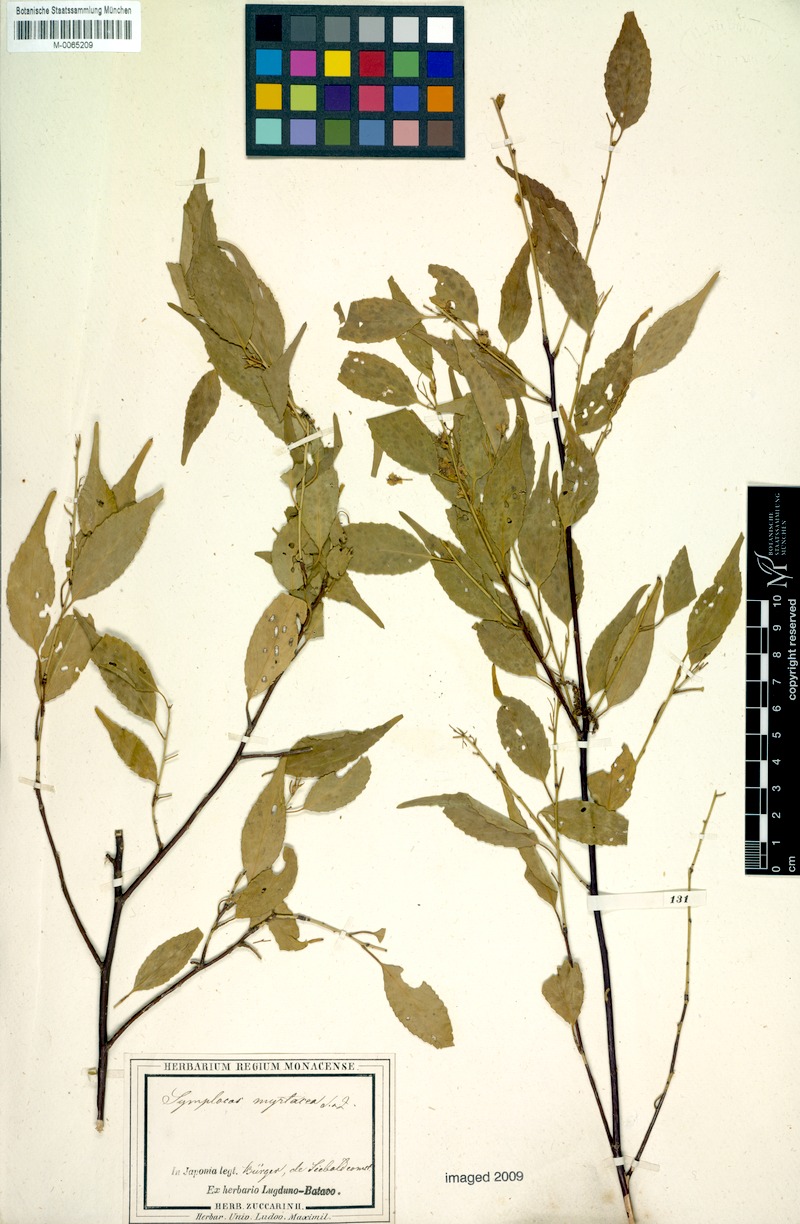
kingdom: Plantae
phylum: Tracheophyta
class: Magnoliopsida
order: Ericales
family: Symplocaceae
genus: Symplocos
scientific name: Symplocos sumuntia
